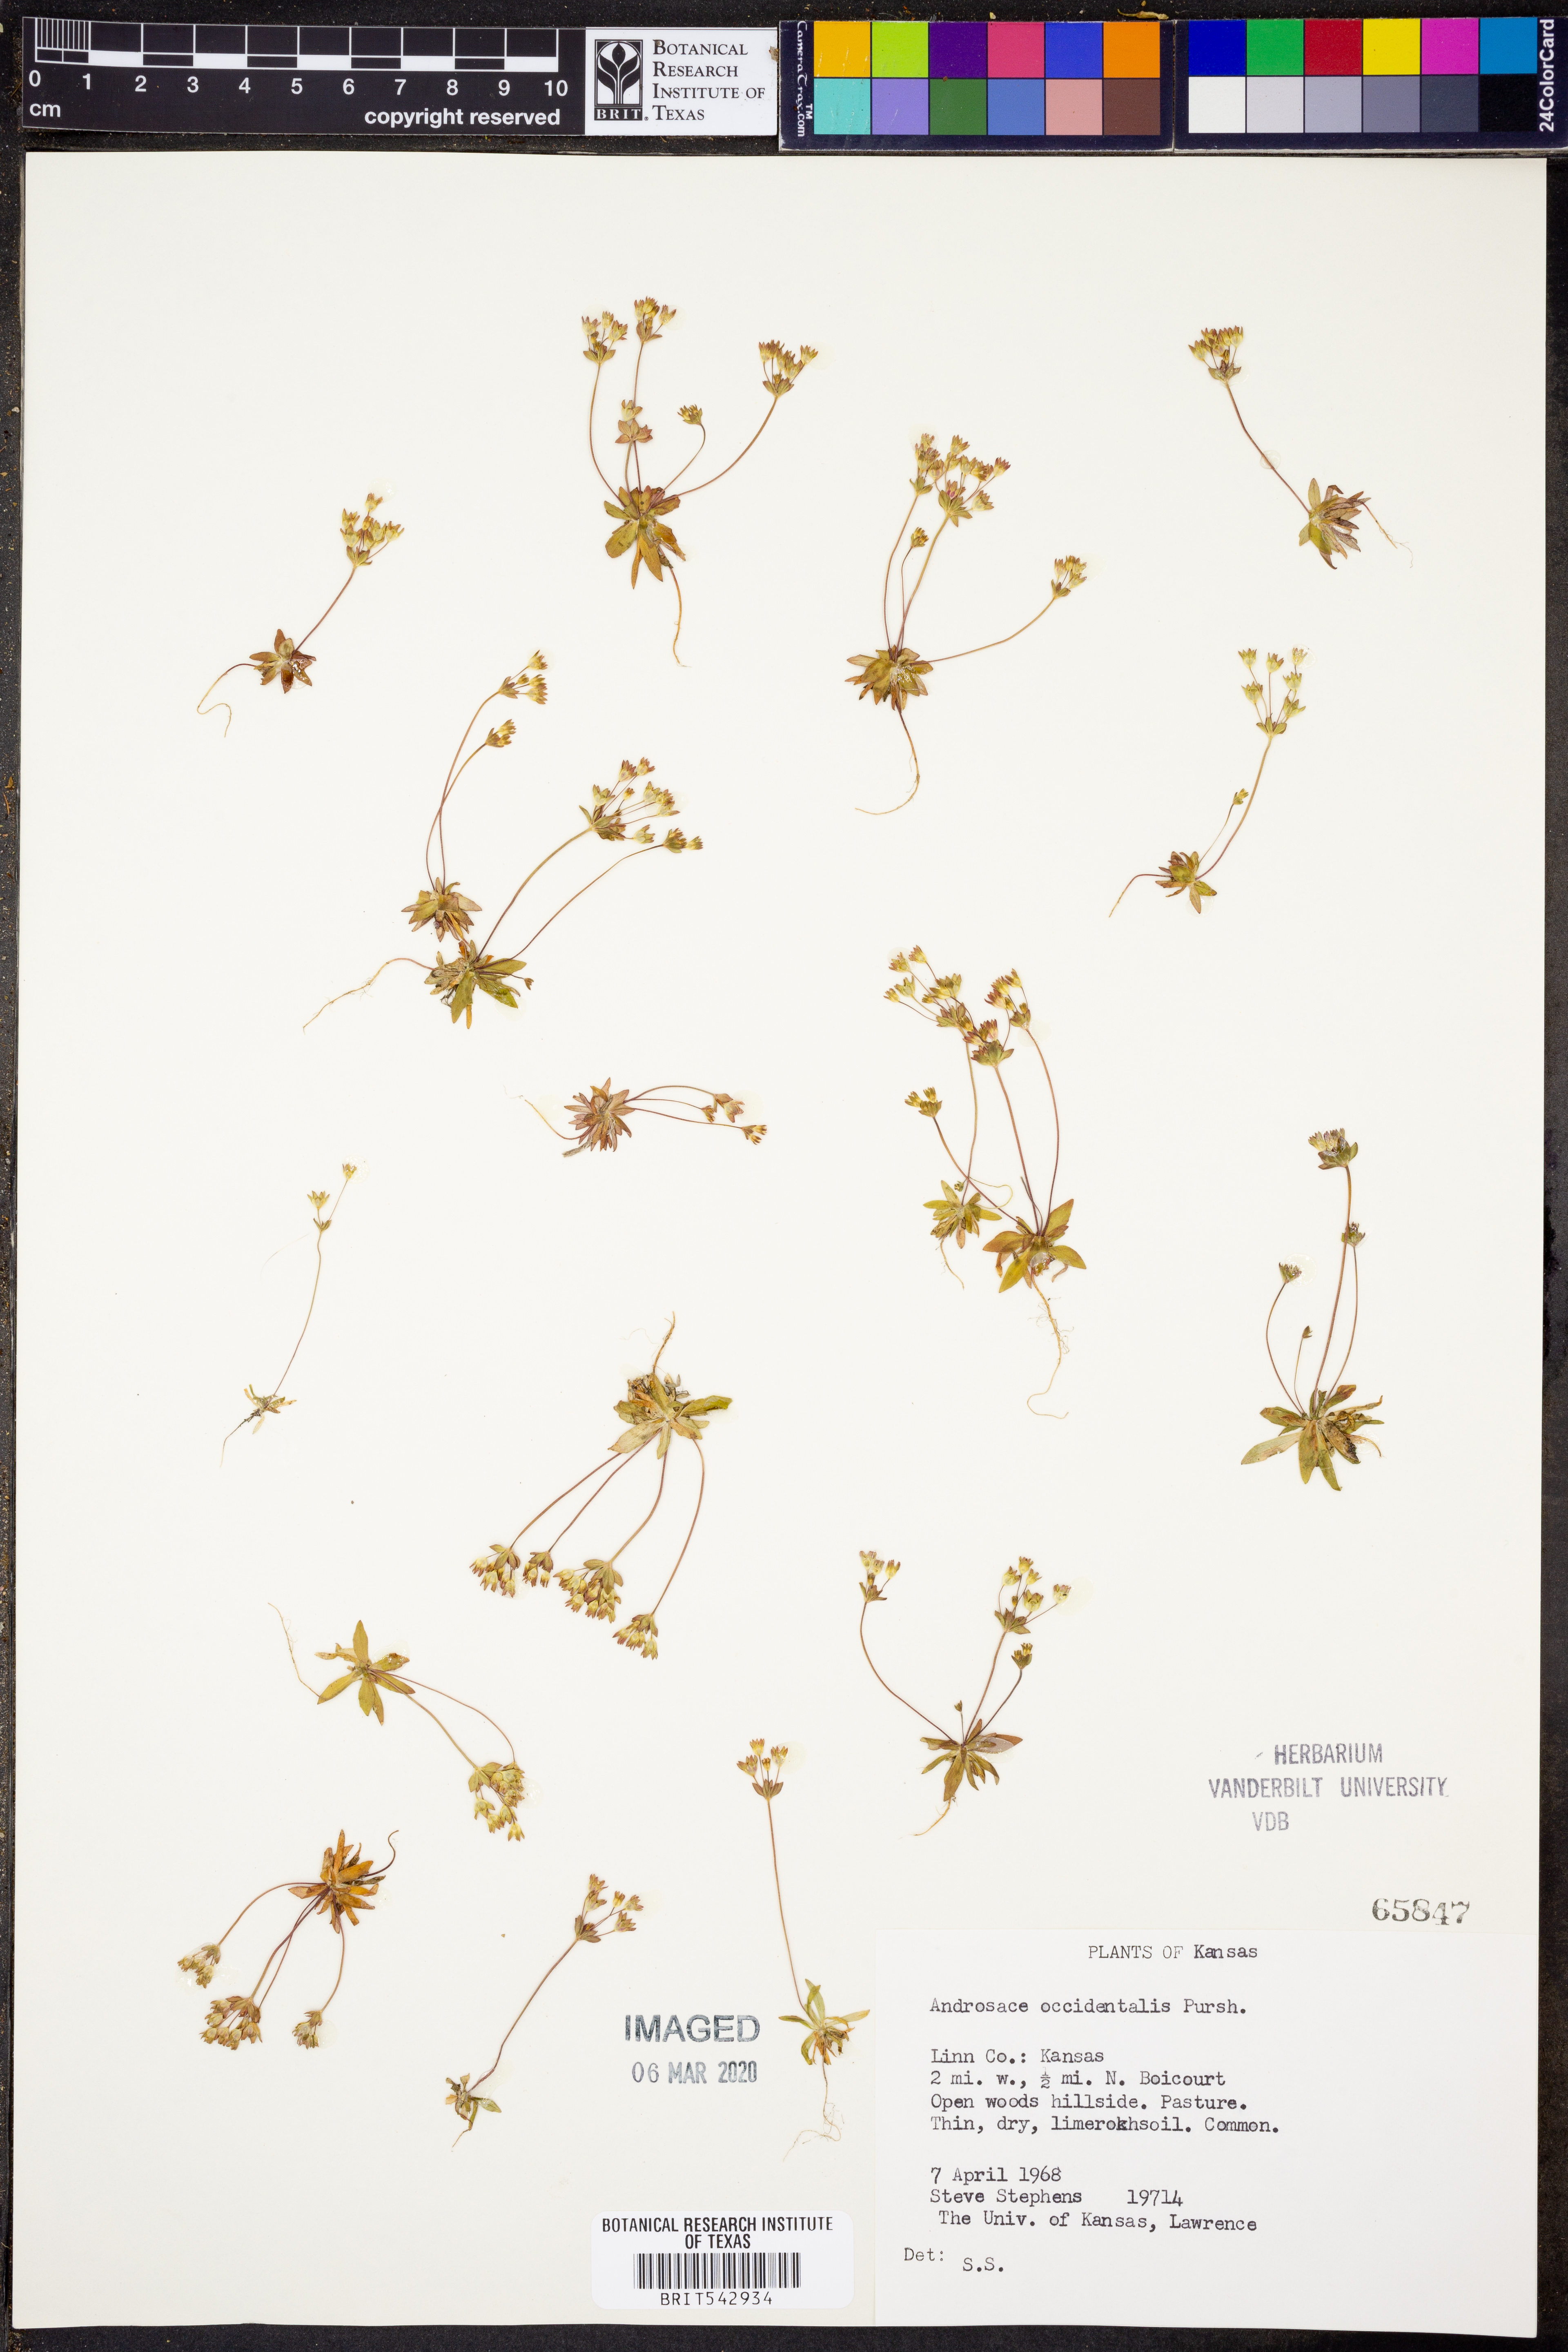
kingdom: Plantae
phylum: Tracheophyta
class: Magnoliopsida
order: Ericales
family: Primulaceae
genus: Androsace
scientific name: Androsace occidentalis
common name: West rock-jasmine
